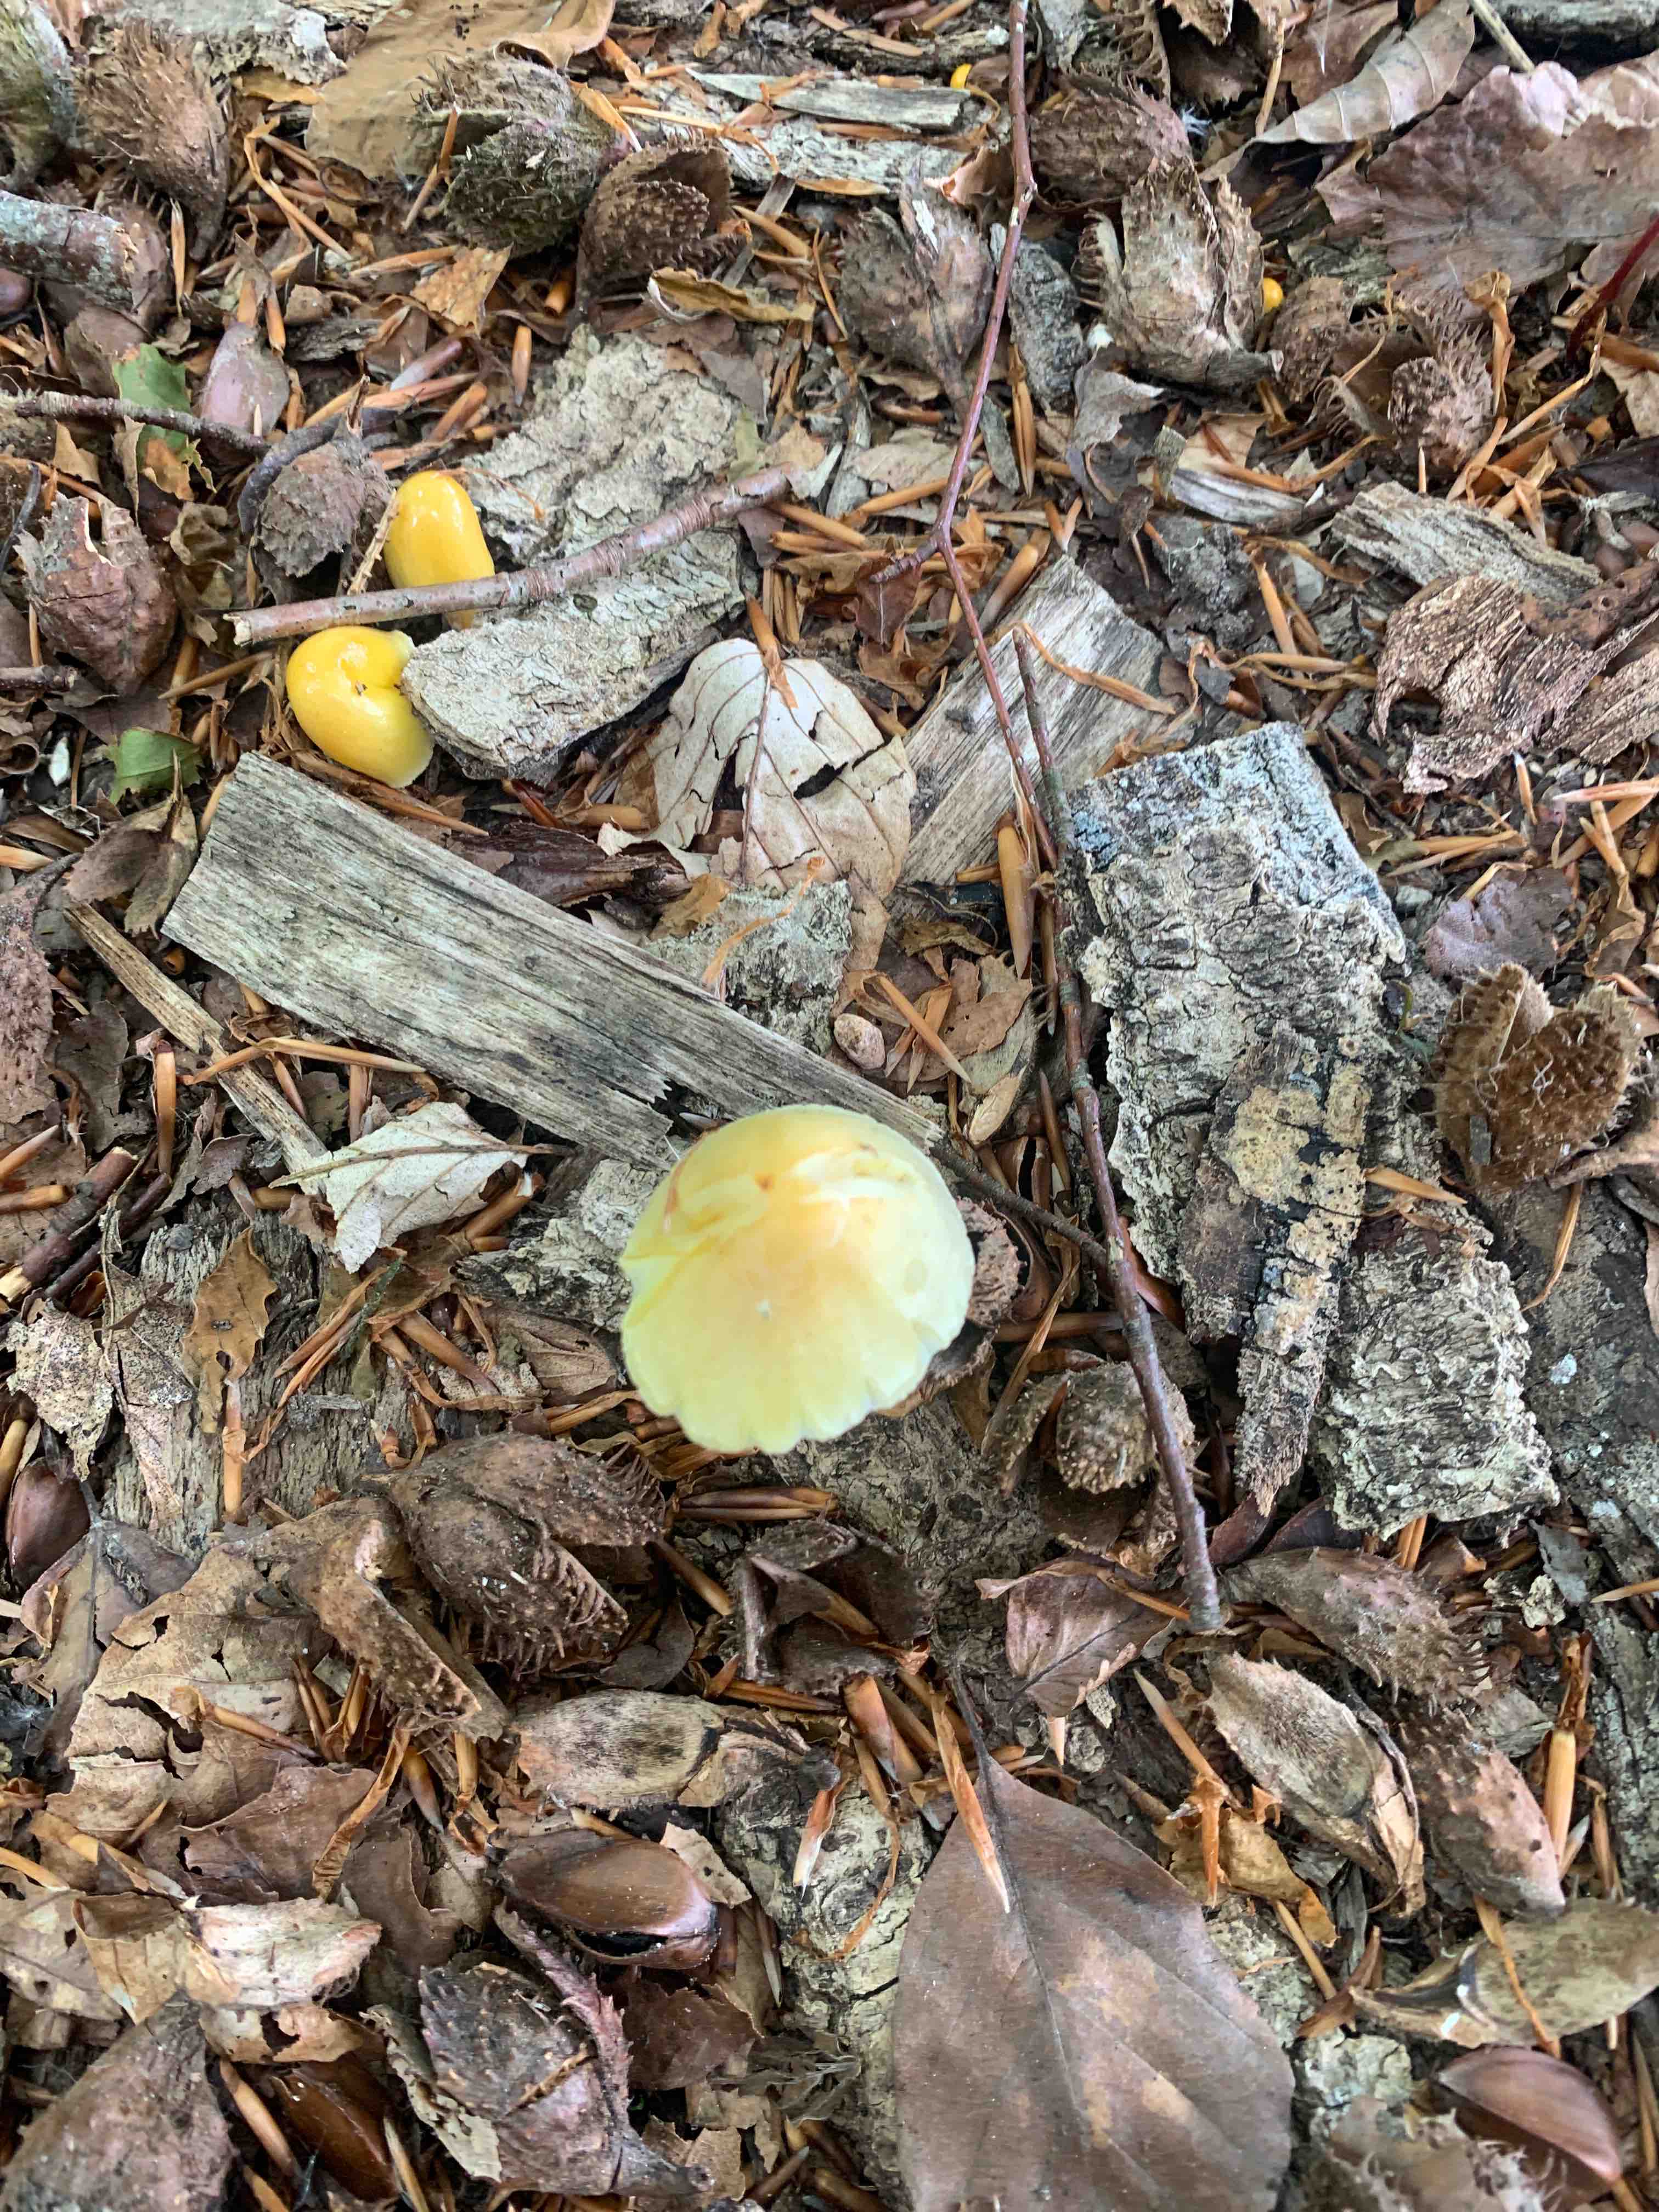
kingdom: Fungi
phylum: Basidiomycota
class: Agaricomycetes
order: Agaricales
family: Bolbitiaceae
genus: Bolbitius
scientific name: Bolbitius titubans
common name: almindelig gulhat
